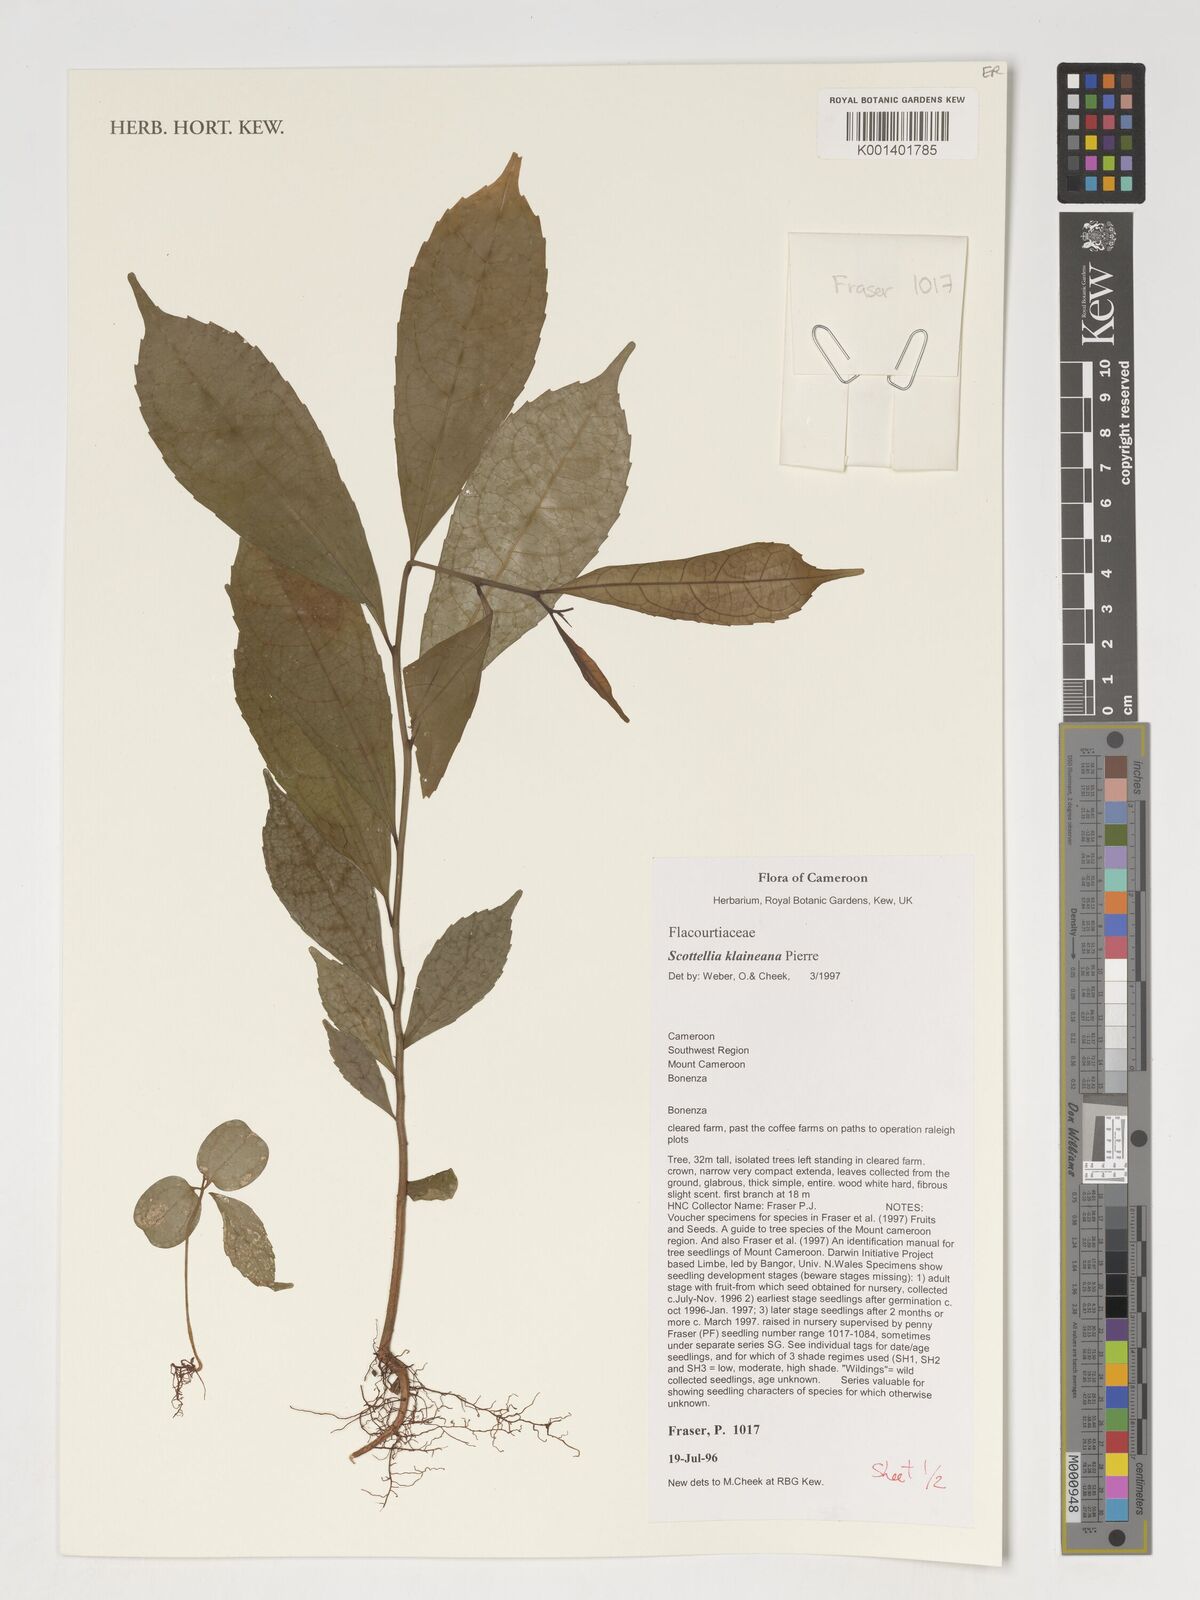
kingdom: Plantae
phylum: Tracheophyta
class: Magnoliopsida
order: Malpighiales
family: Achariaceae
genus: Scottellia
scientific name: Scottellia klaineana
